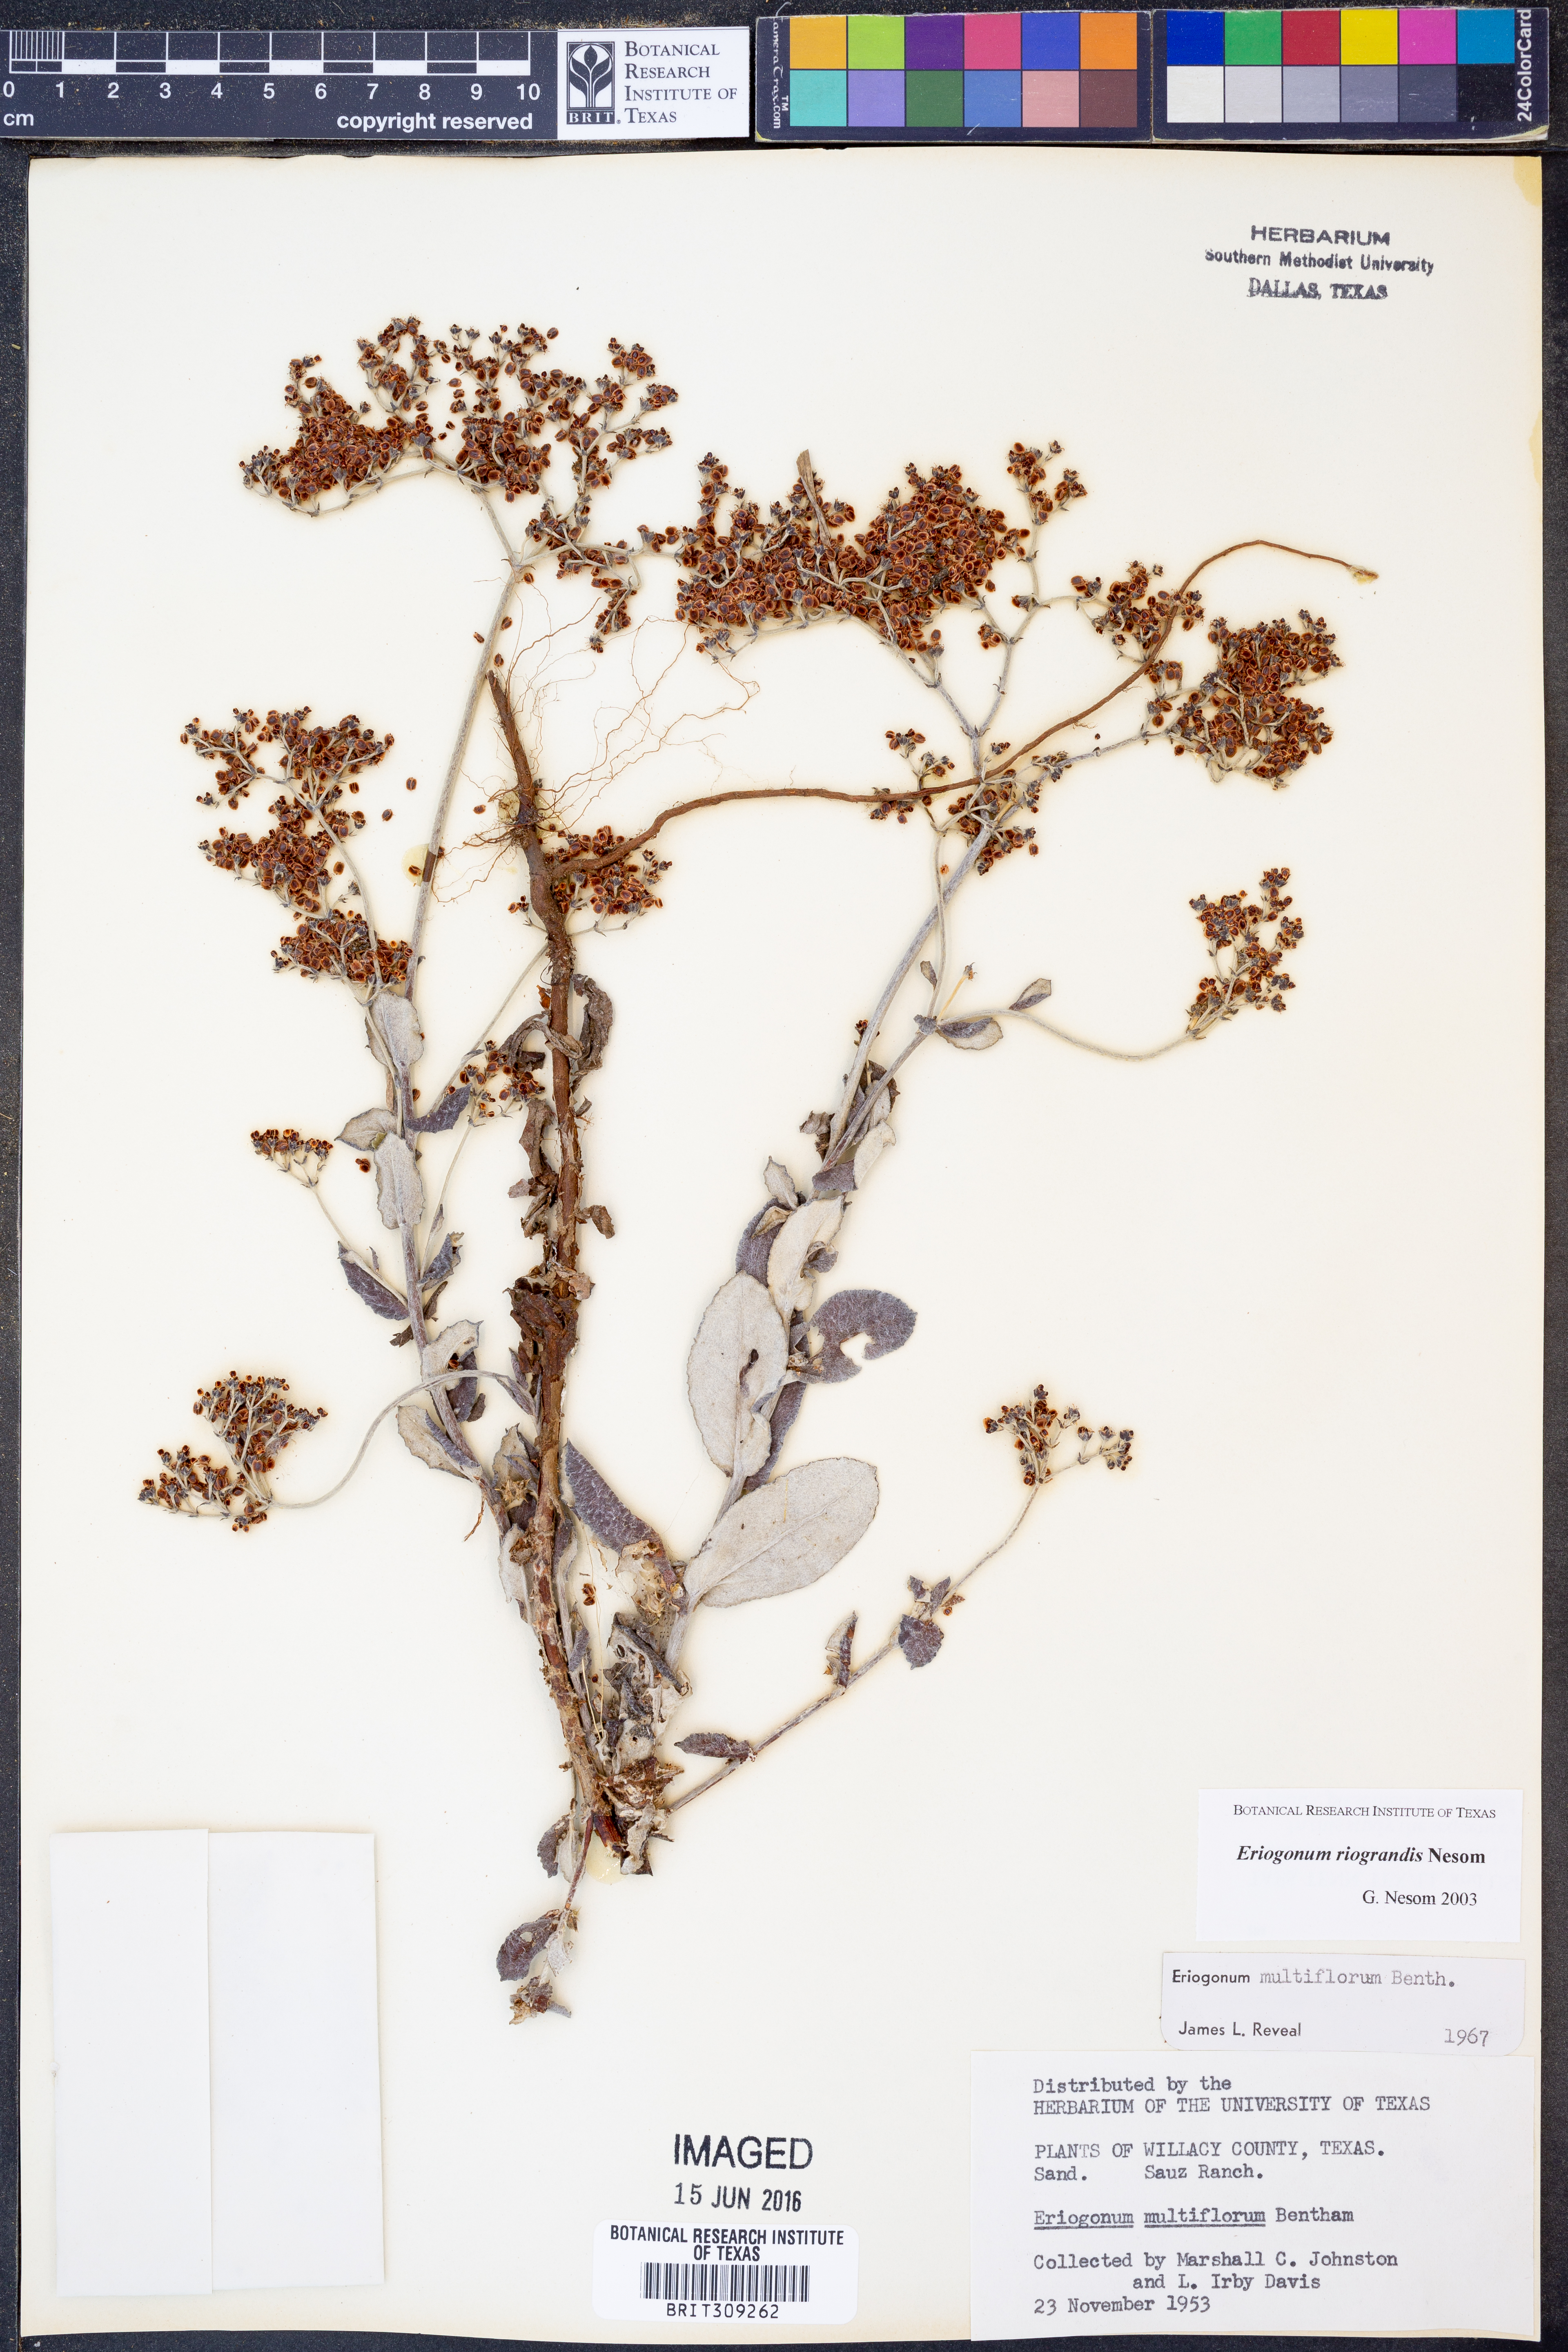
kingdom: Plantae
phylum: Tracheophyta
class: Magnoliopsida
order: Caryophyllales
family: Polygonaceae
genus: Eriogonum
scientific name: Eriogonum multiflorum
